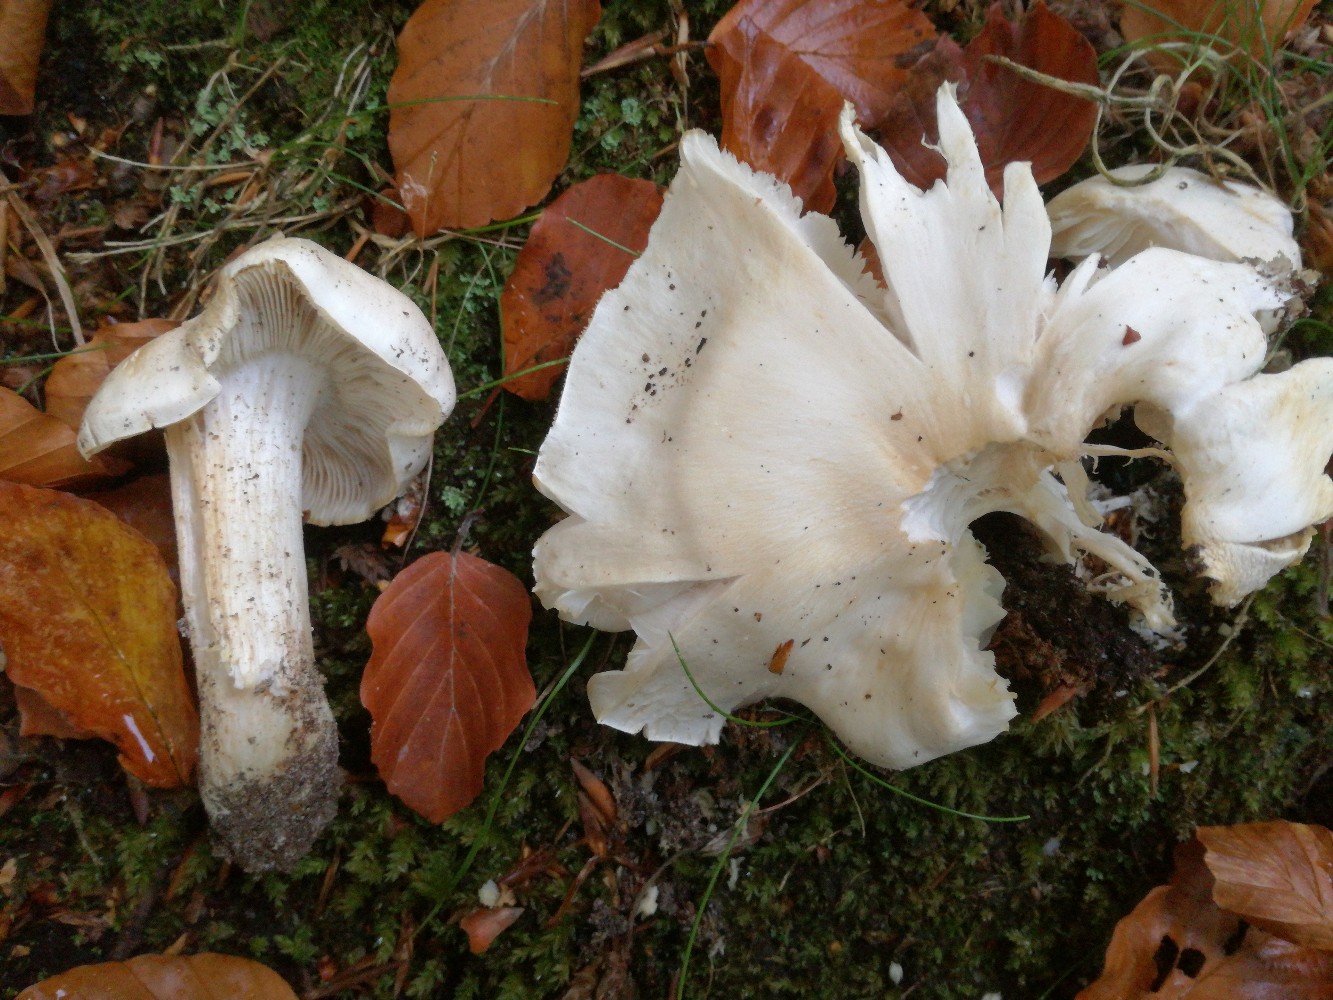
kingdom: Fungi
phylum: Basidiomycota
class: Agaricomycetes
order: Agaricales
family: Tricholomataceae
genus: Tricholoma
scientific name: Tricholoma columbetta
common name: silke-ridderhat
